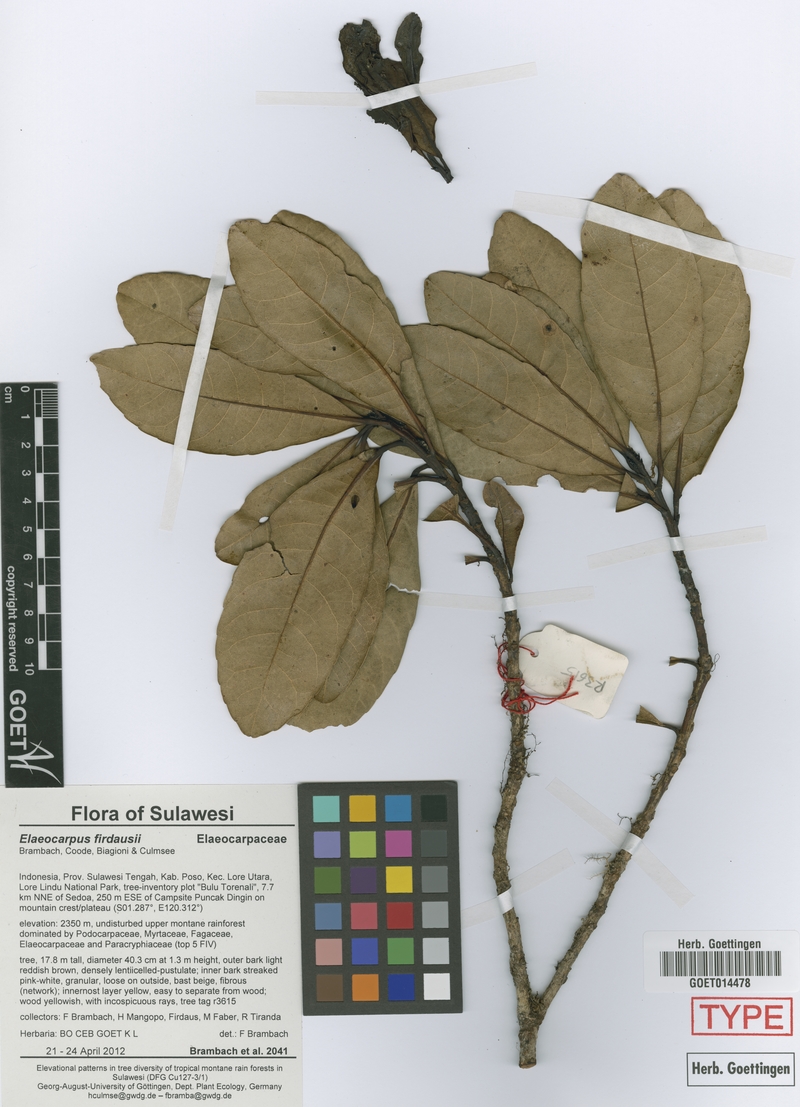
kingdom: Plantae
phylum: Tracheophyta
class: Magnoliopsida
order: Oxalidales
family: Elaeocarpaceae
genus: Elaeocarpus
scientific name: Elaeocarpus firdausii
